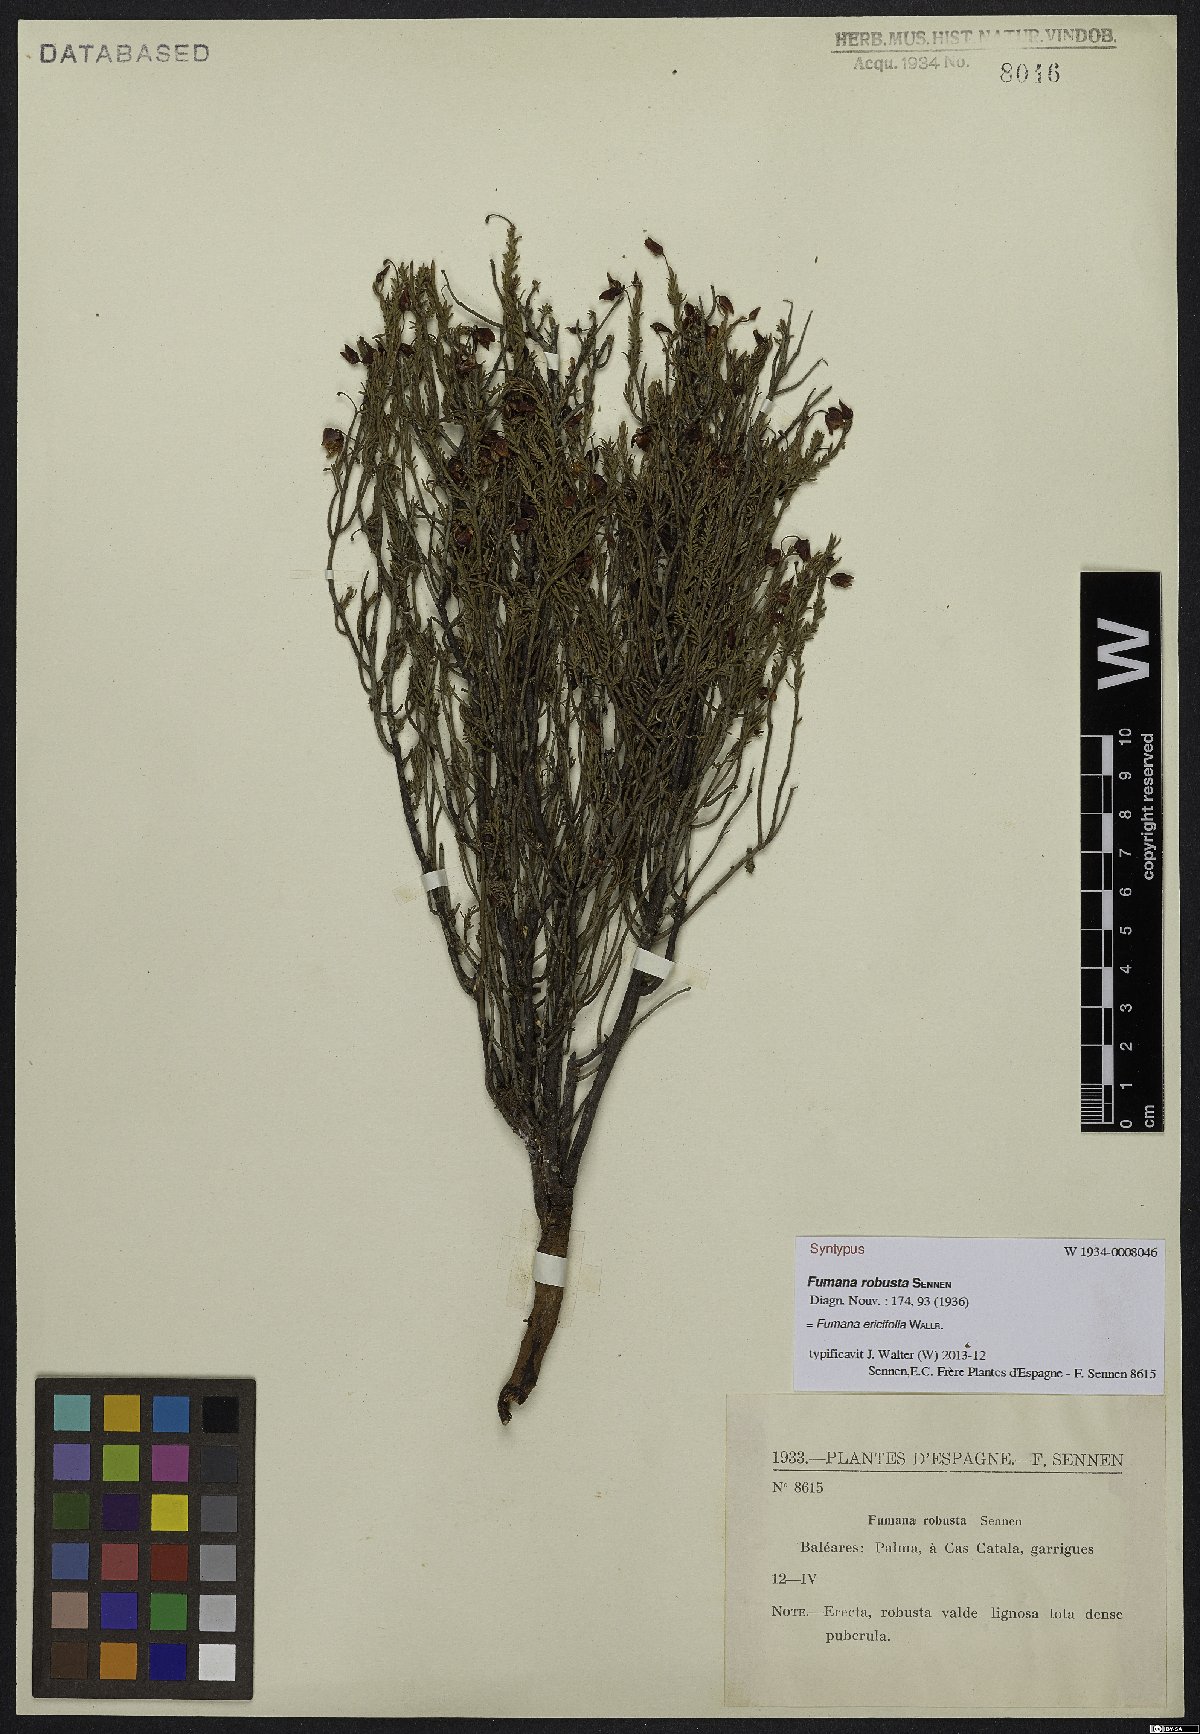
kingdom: Plantae
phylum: Tracheophyta
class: Magnoliopsida
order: Malvales
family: Cistaceae
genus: Fumana
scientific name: Fumana ericifolia
